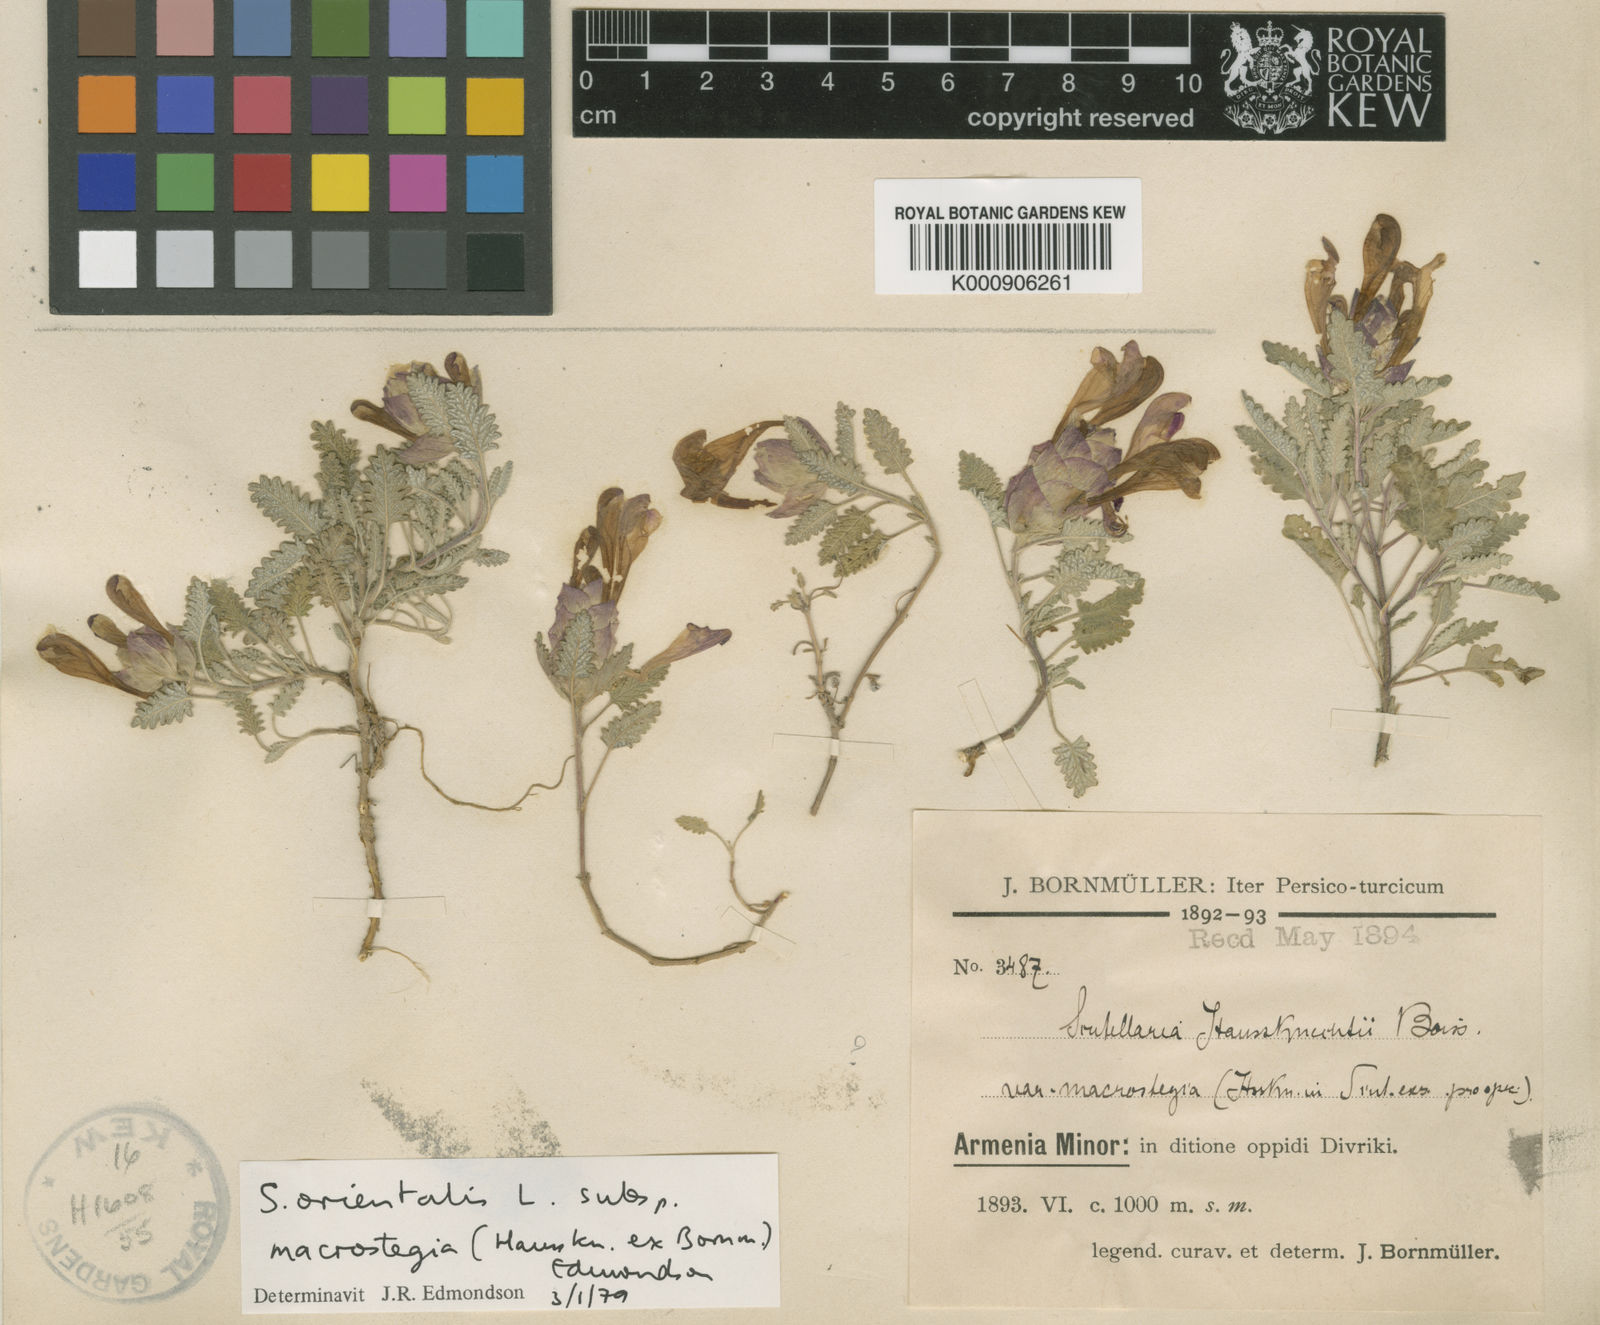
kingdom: Plantae
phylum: Tracheophyta
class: Magnoliopsida
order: Lamiales
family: Lamiaceae
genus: Scutellaria
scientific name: Scutellaria orientalis
